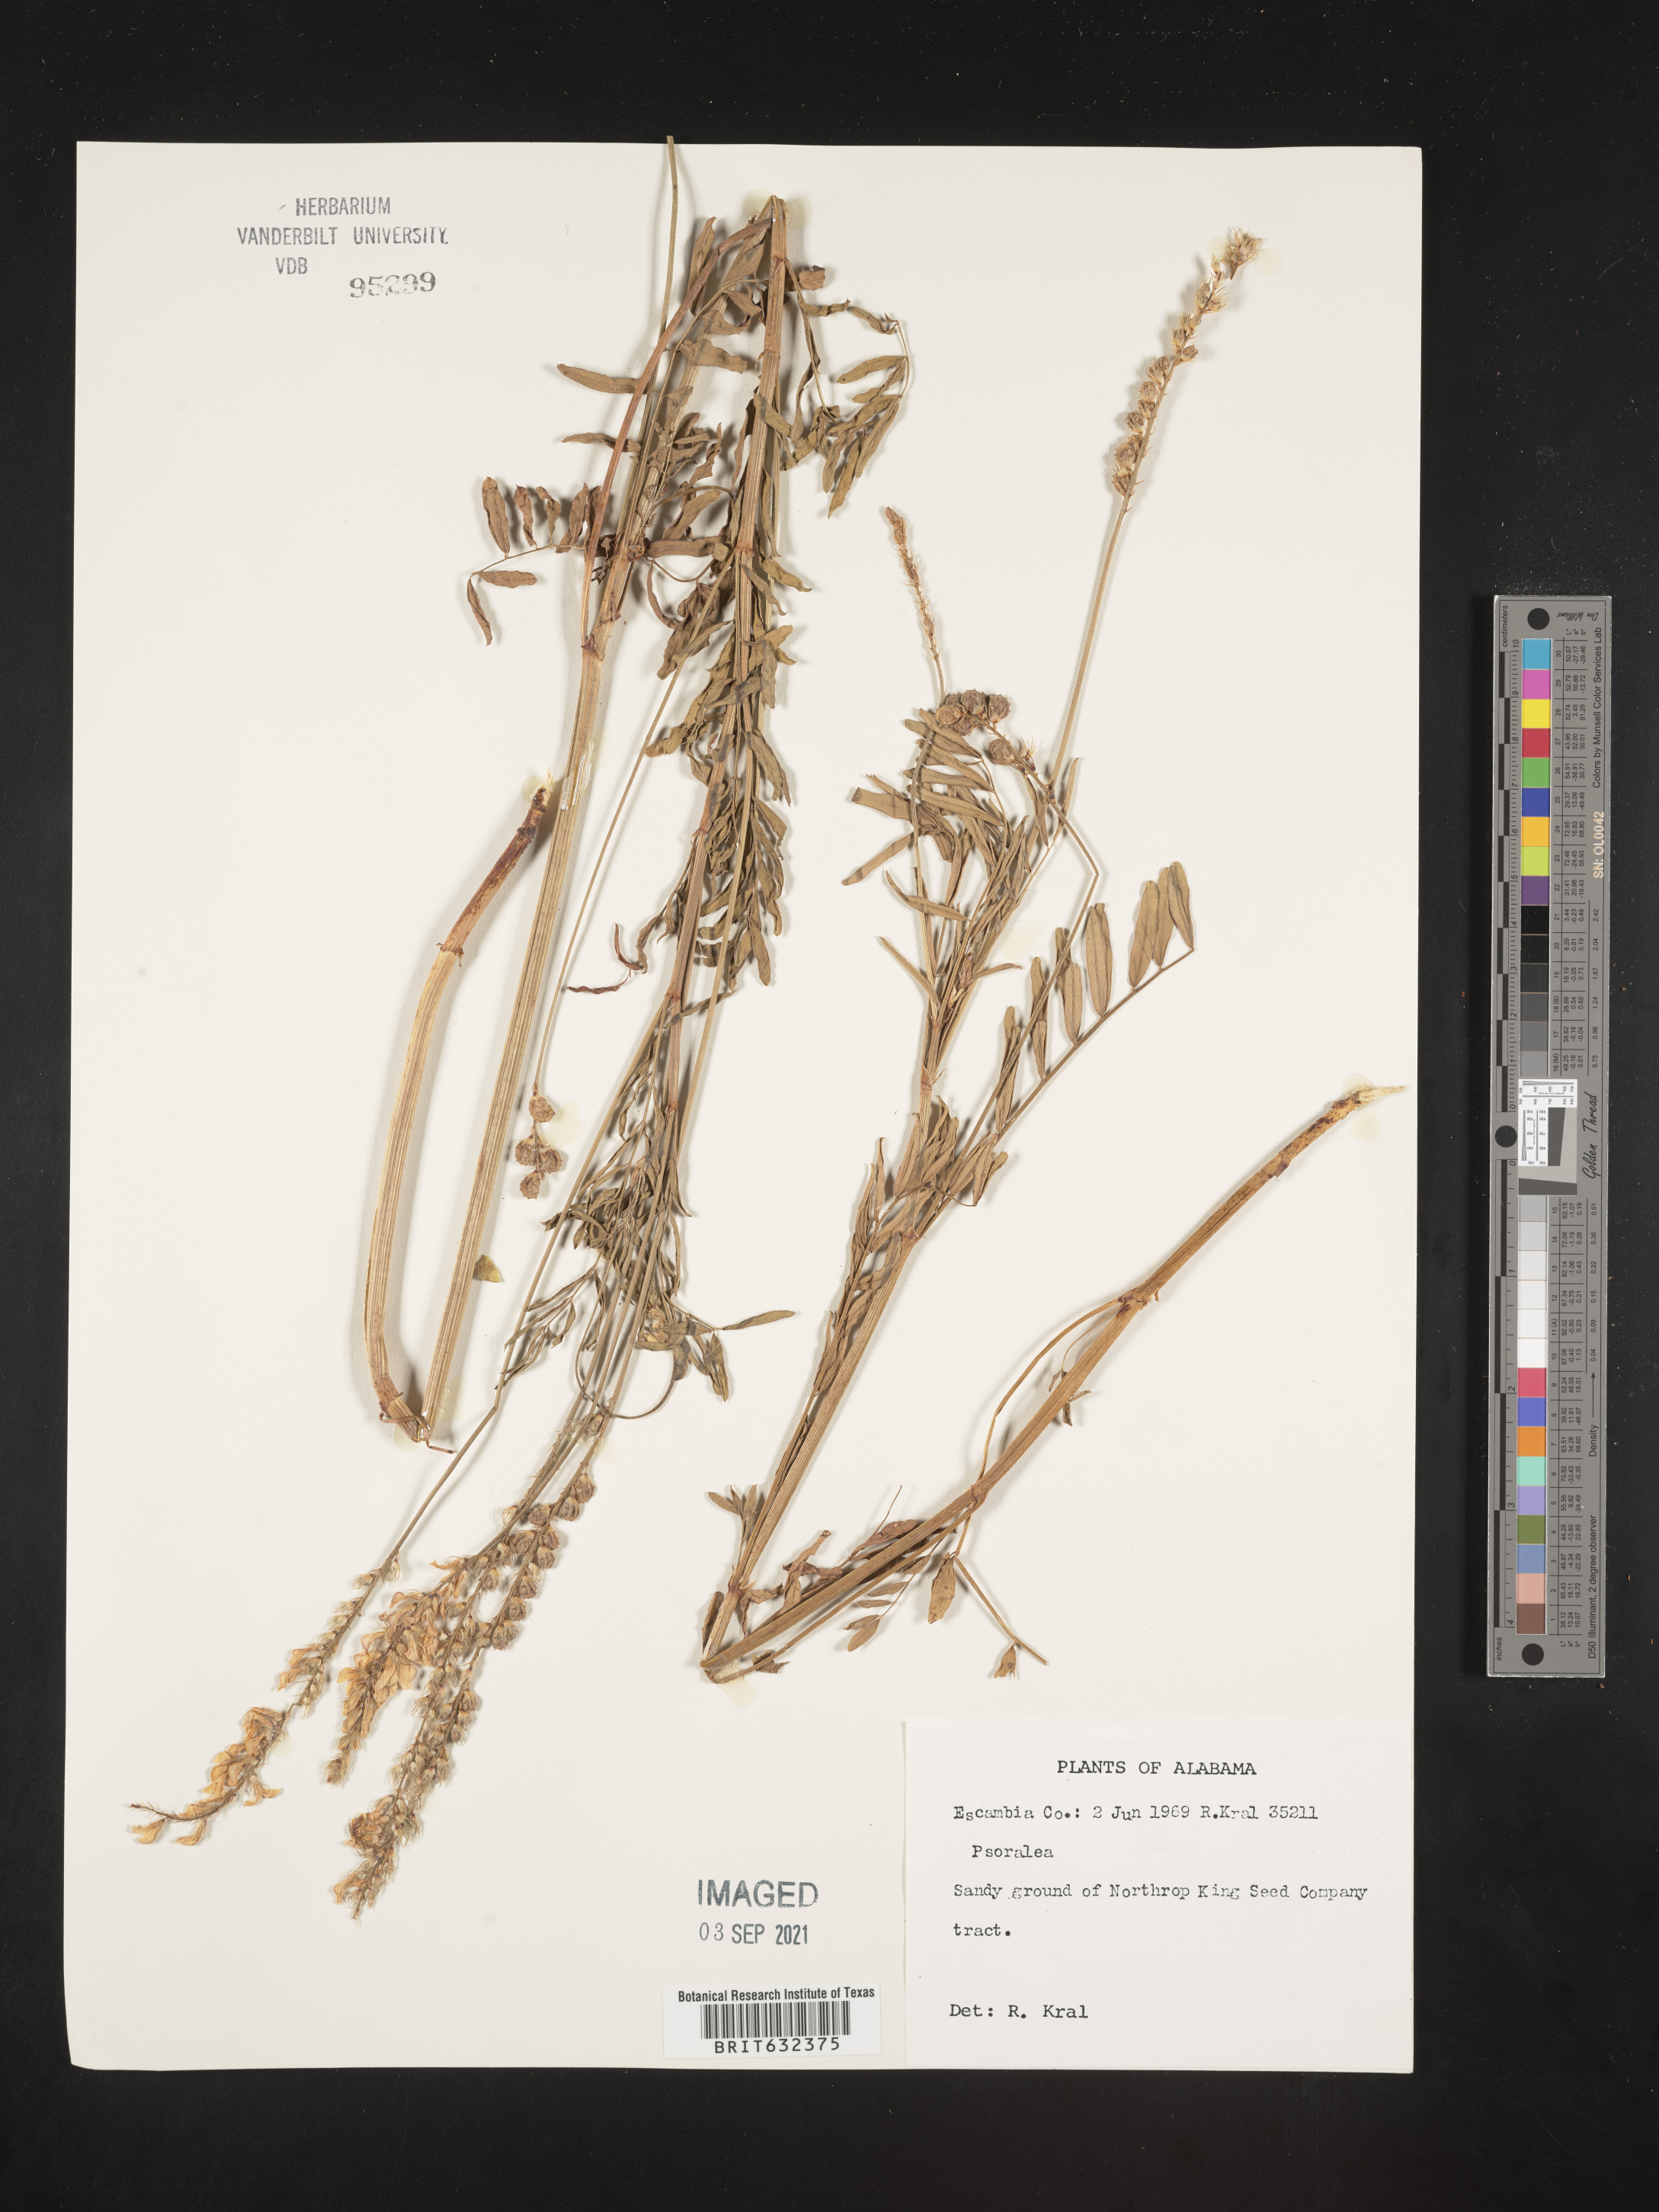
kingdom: Plantae
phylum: Tracheophyta
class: Magnoliopsida
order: Fabales
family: Fabaceae
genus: Psoralea
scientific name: Psoralea
